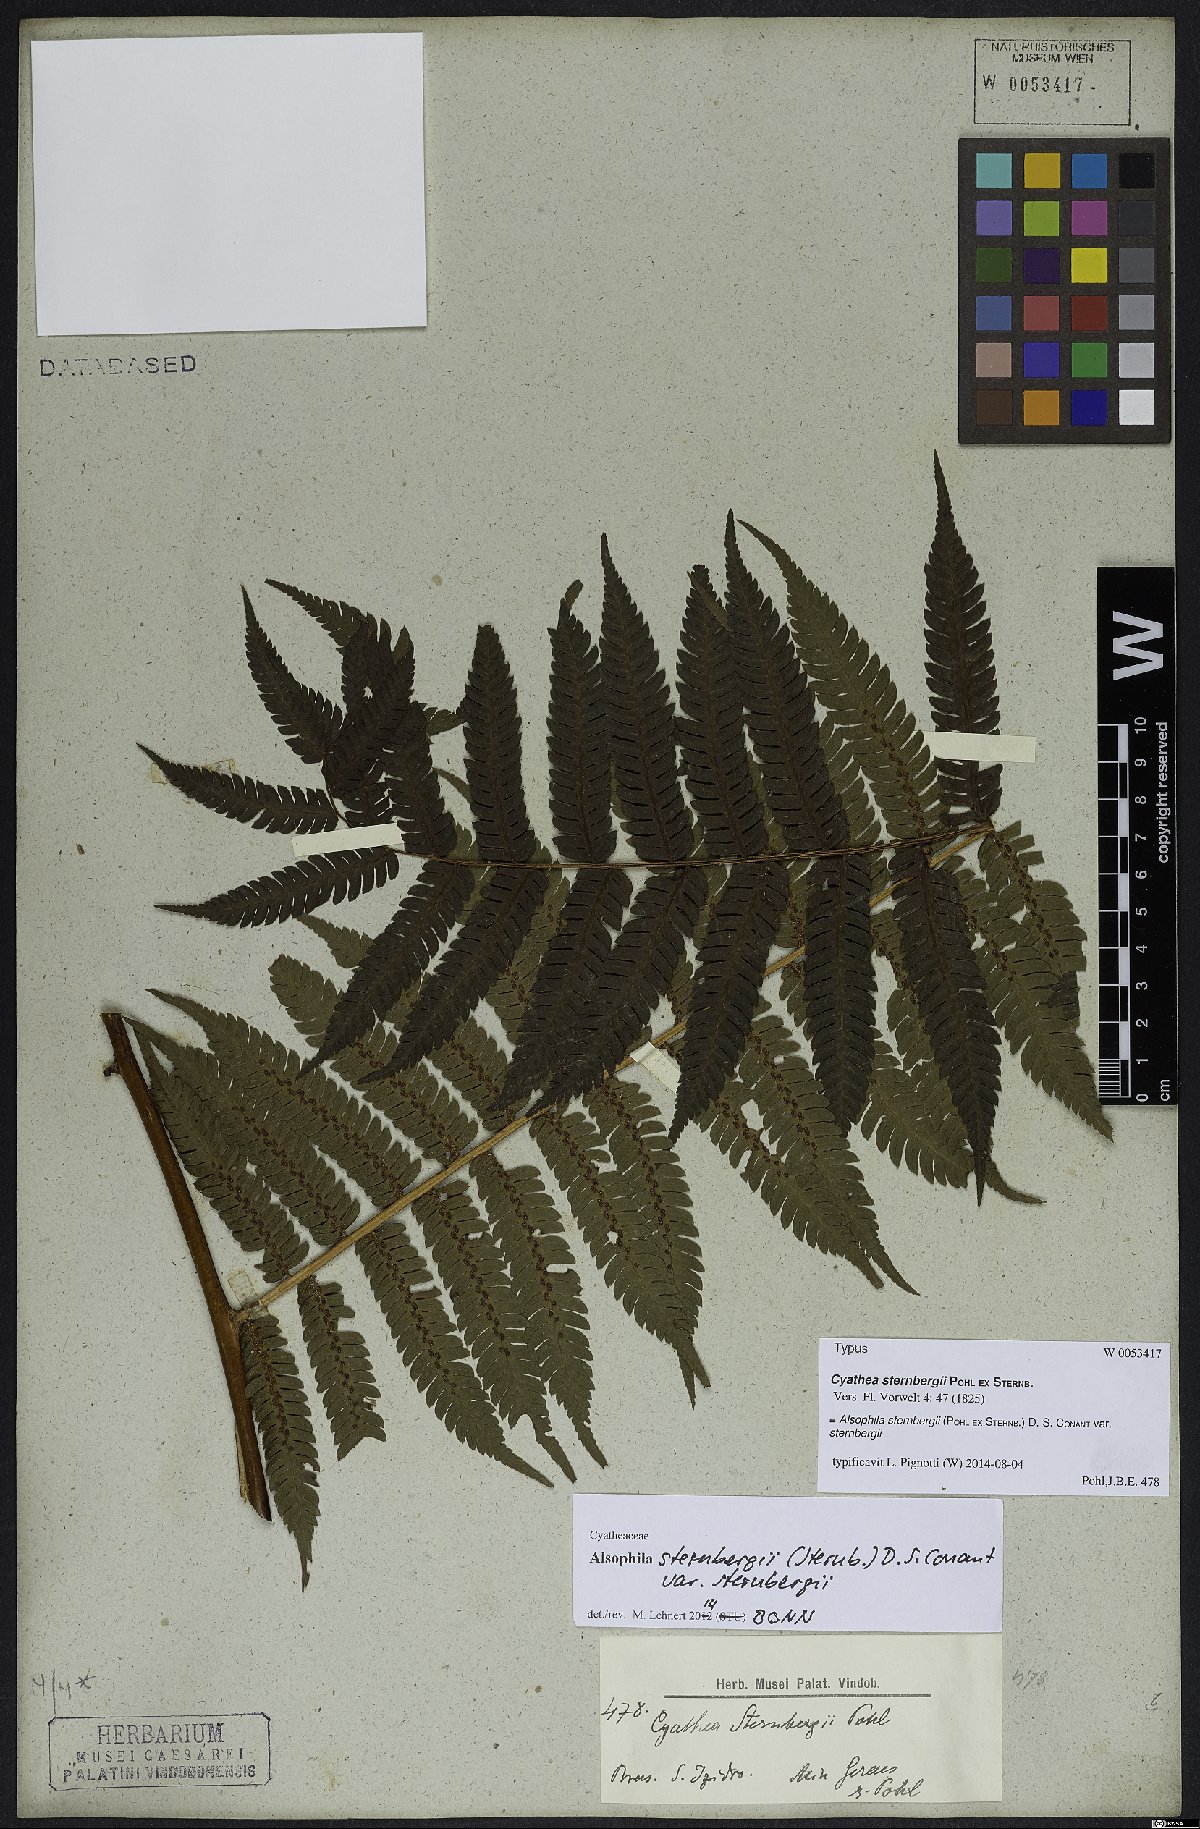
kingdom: Plantae
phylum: Tracheophyta
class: Polypodiopsida
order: Cyatheales
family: Cyatheaceae
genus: Alsophila
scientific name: Alsophila sternbergii
